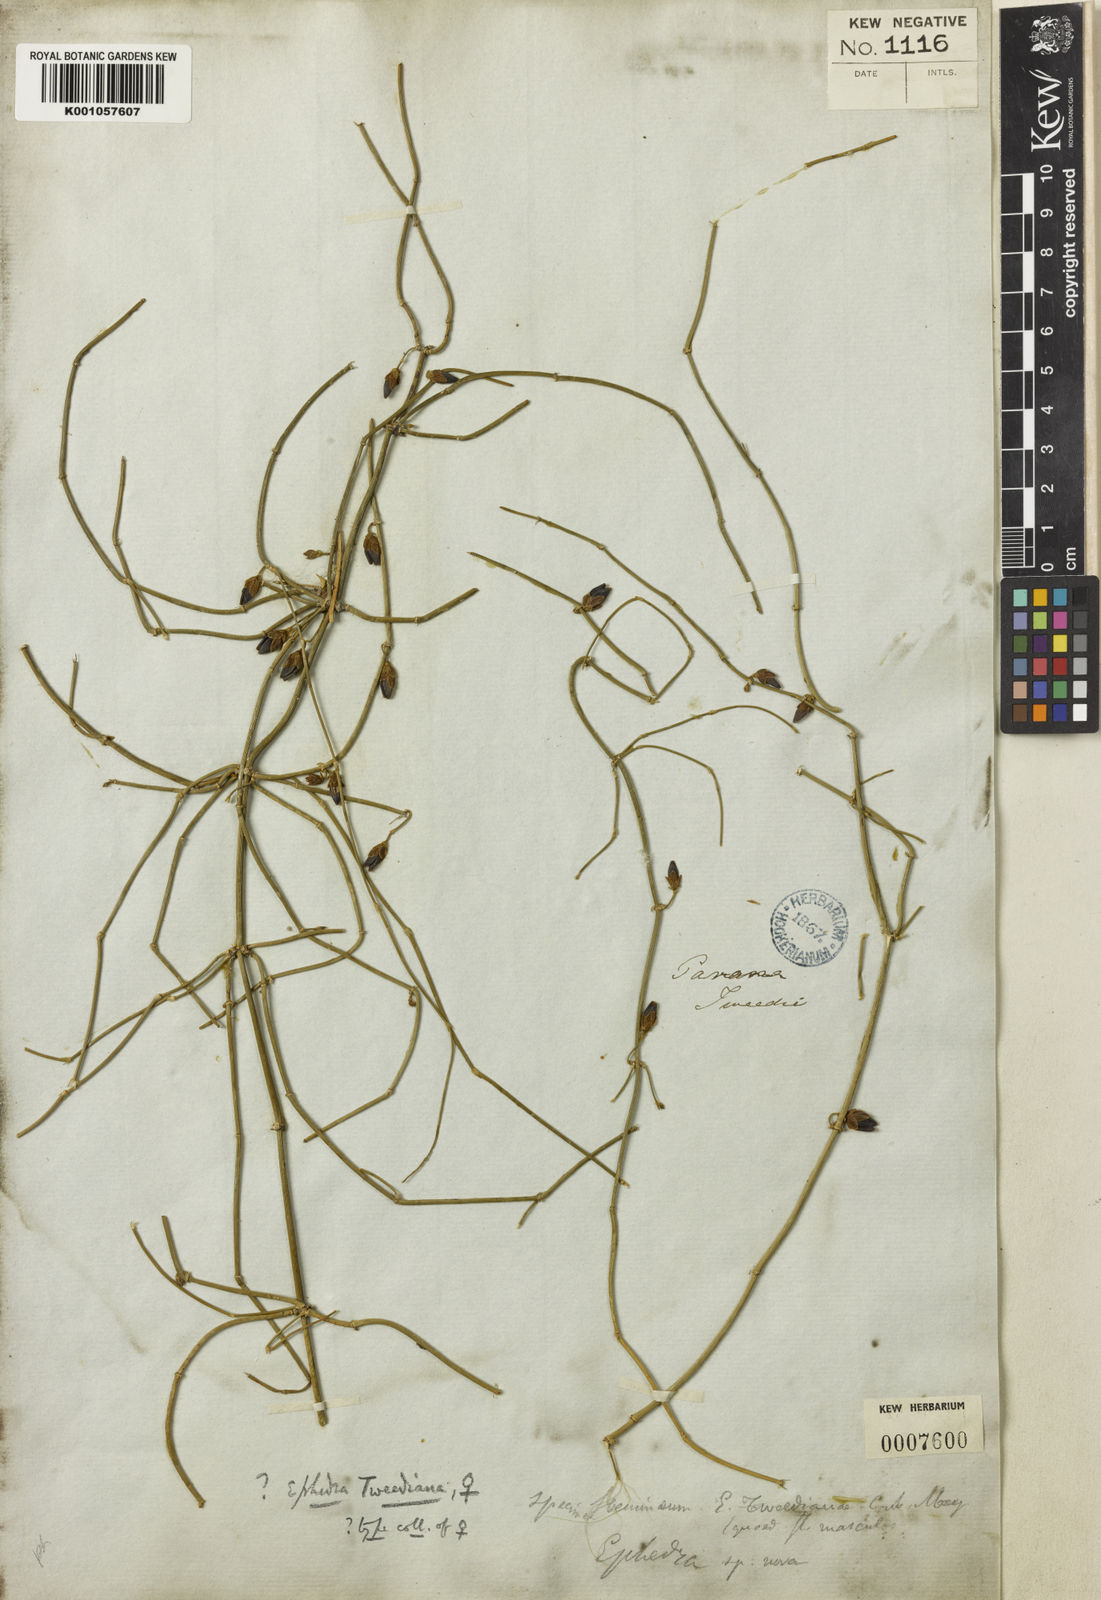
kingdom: Plantae
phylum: Tracheophyta
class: Gnetopsida
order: Ephedrales
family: Ephedraceae
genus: Ephedra
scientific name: Ephedra tweedieana
